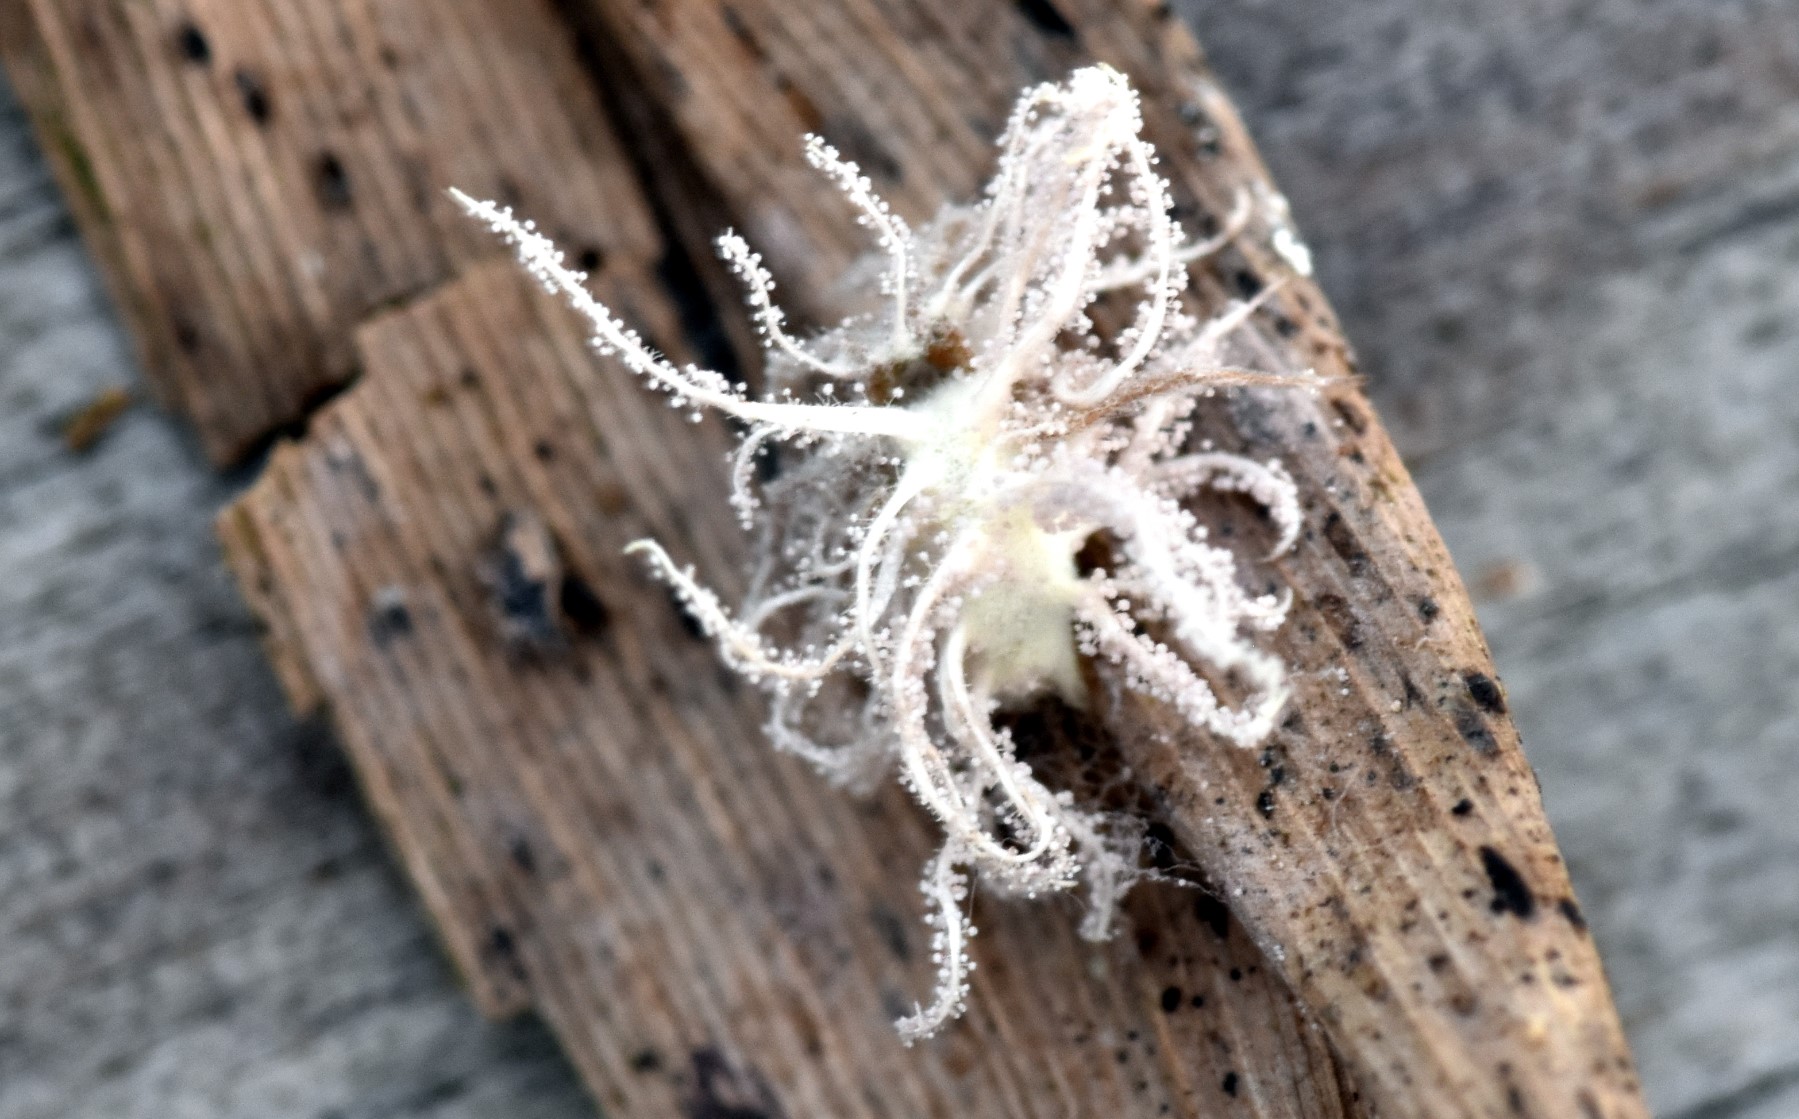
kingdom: Fungi
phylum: Ascomycota
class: Sordariomycetes
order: Hypocreales
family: Cordycipitaceae
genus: Gibellula
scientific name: Gibellula pulchra
